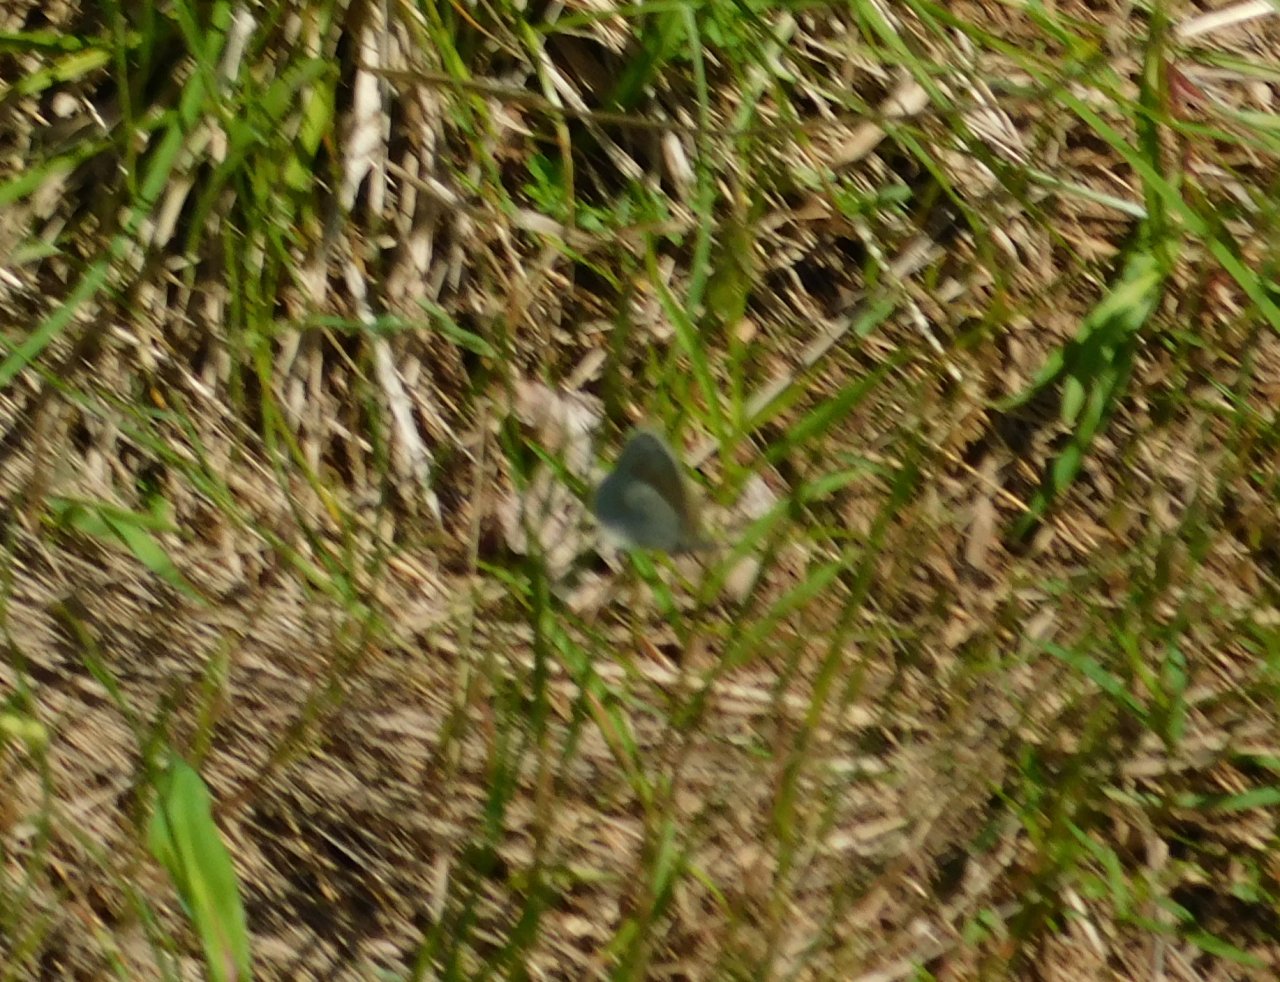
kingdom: Animalia
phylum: Arthropoda
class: Insecta
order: Lepidoptera
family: Nymphalidae
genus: Coenonympha
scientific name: Coenonympha tullia
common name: Large Heath
